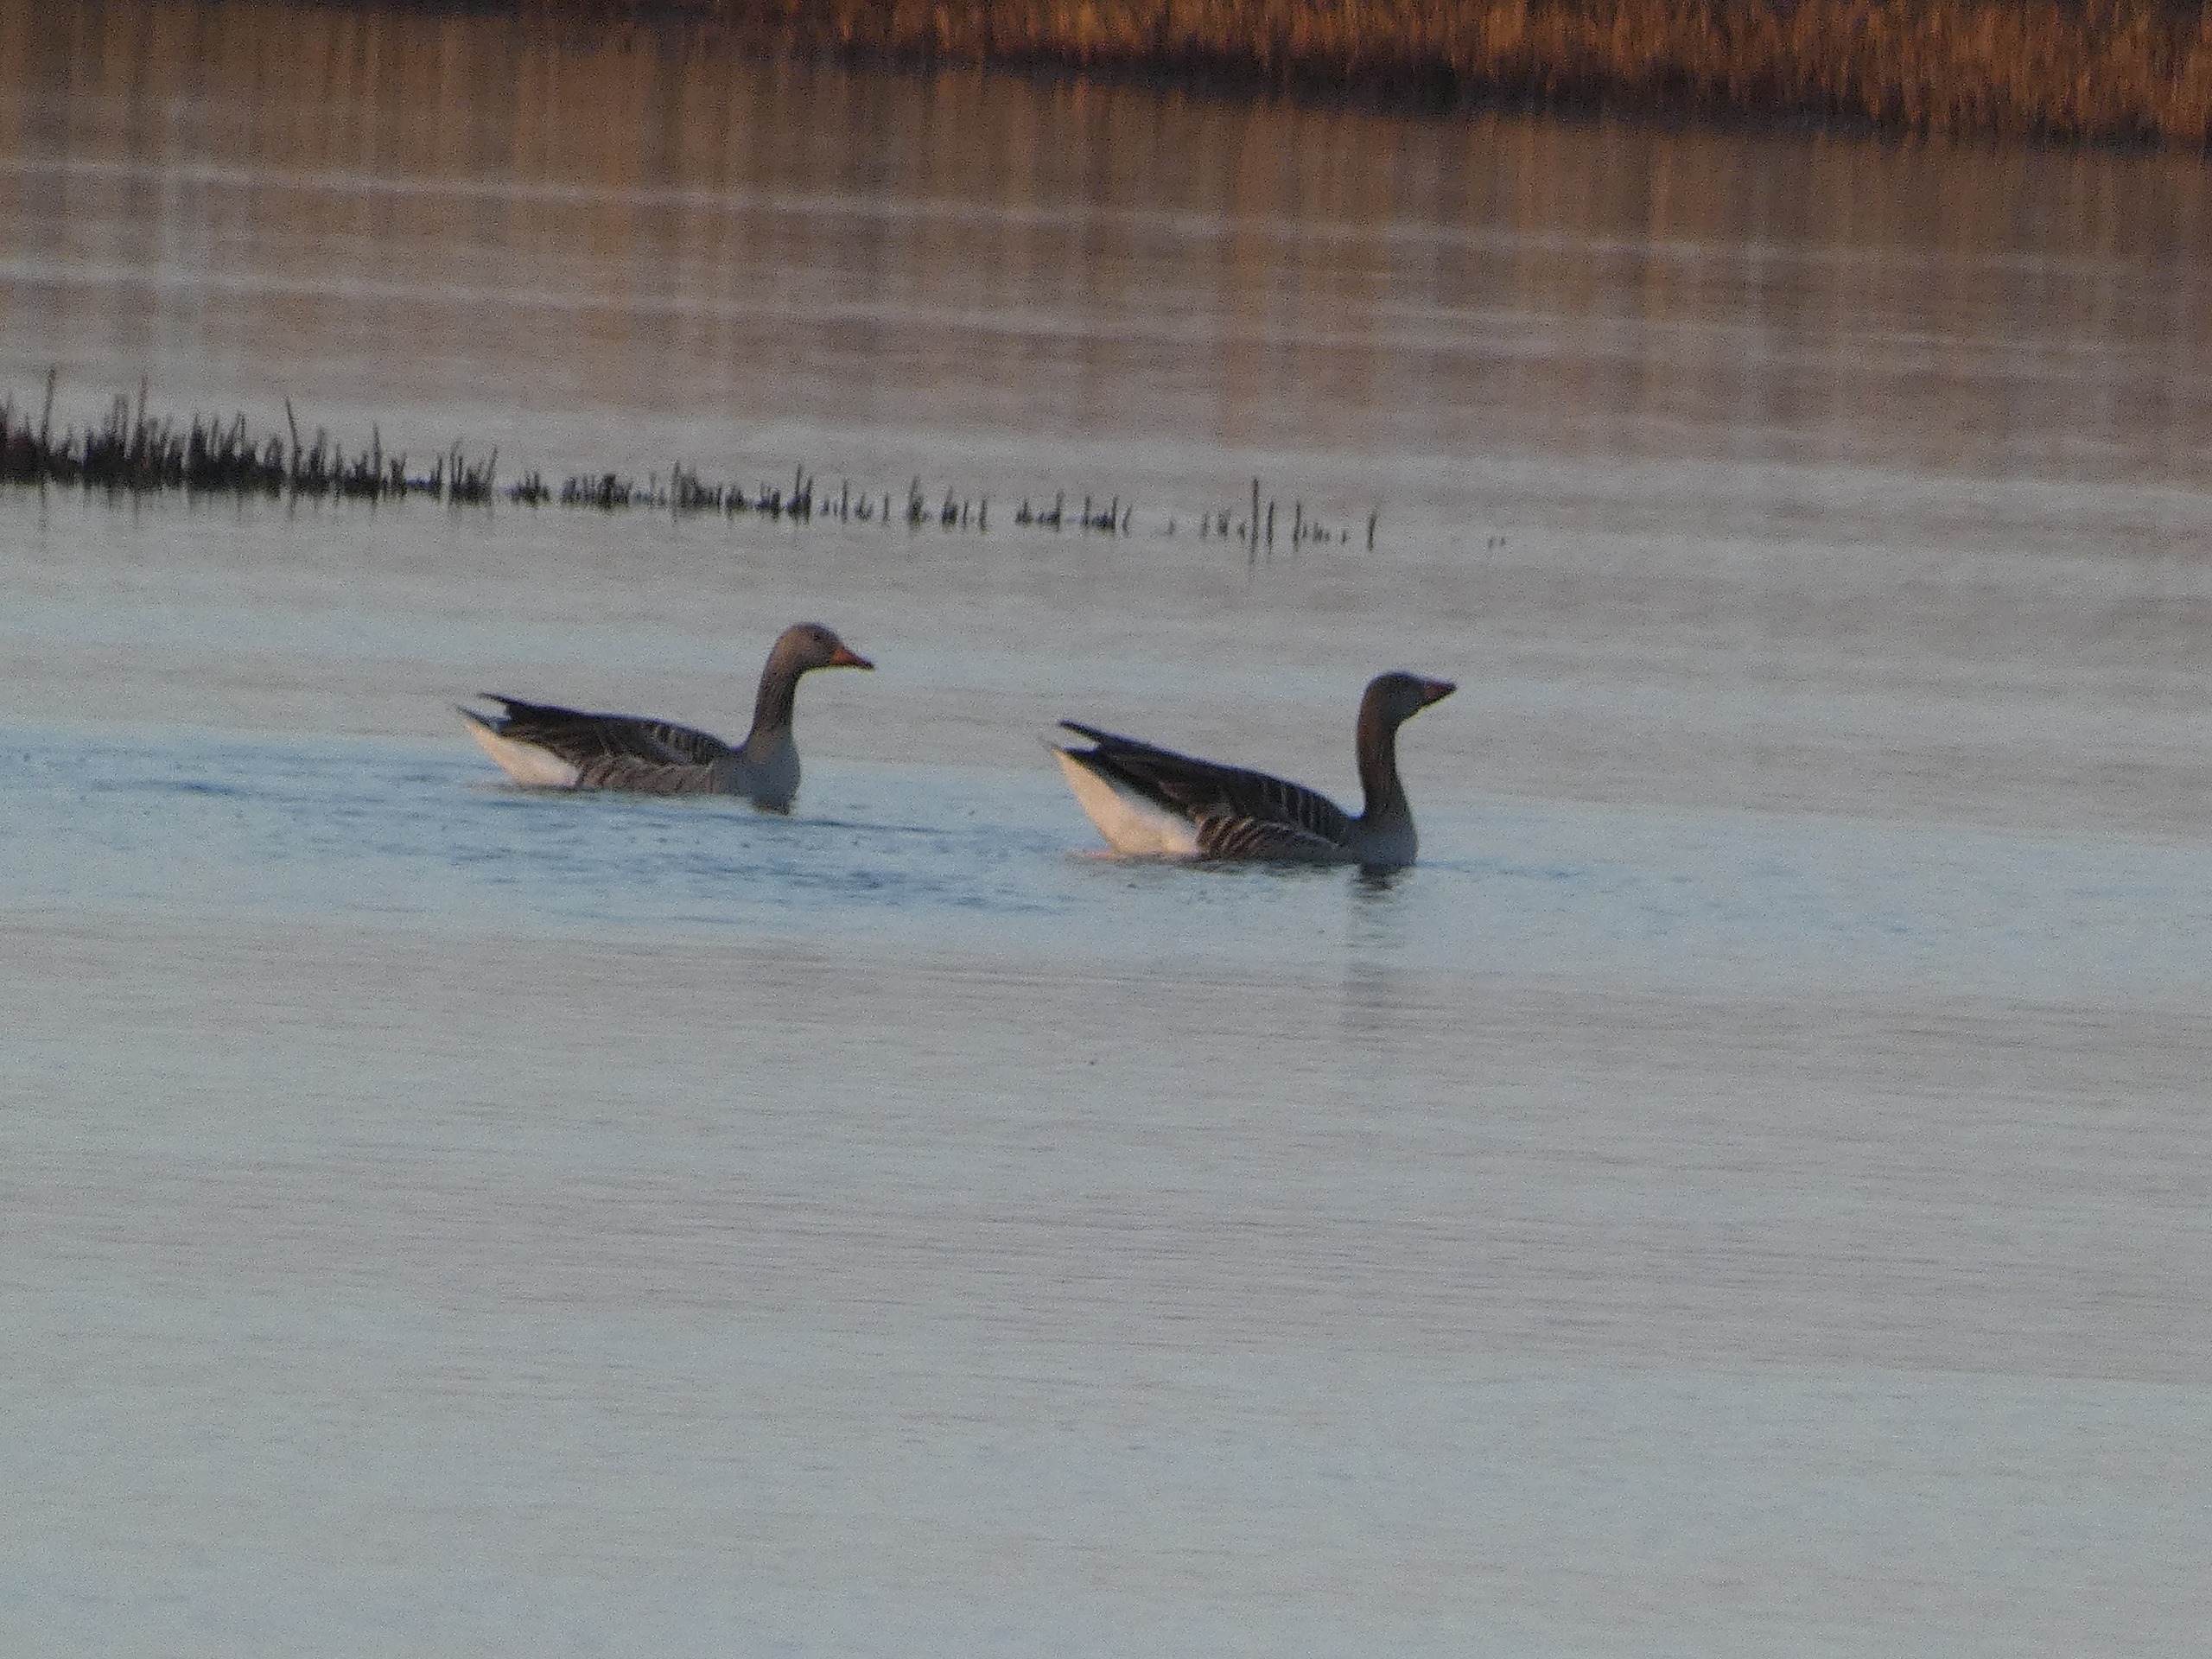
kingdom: Animalia
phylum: Chordata
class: Aves
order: Anseriformes
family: Anatidae
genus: Anser
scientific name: Anser anser
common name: Grågås
